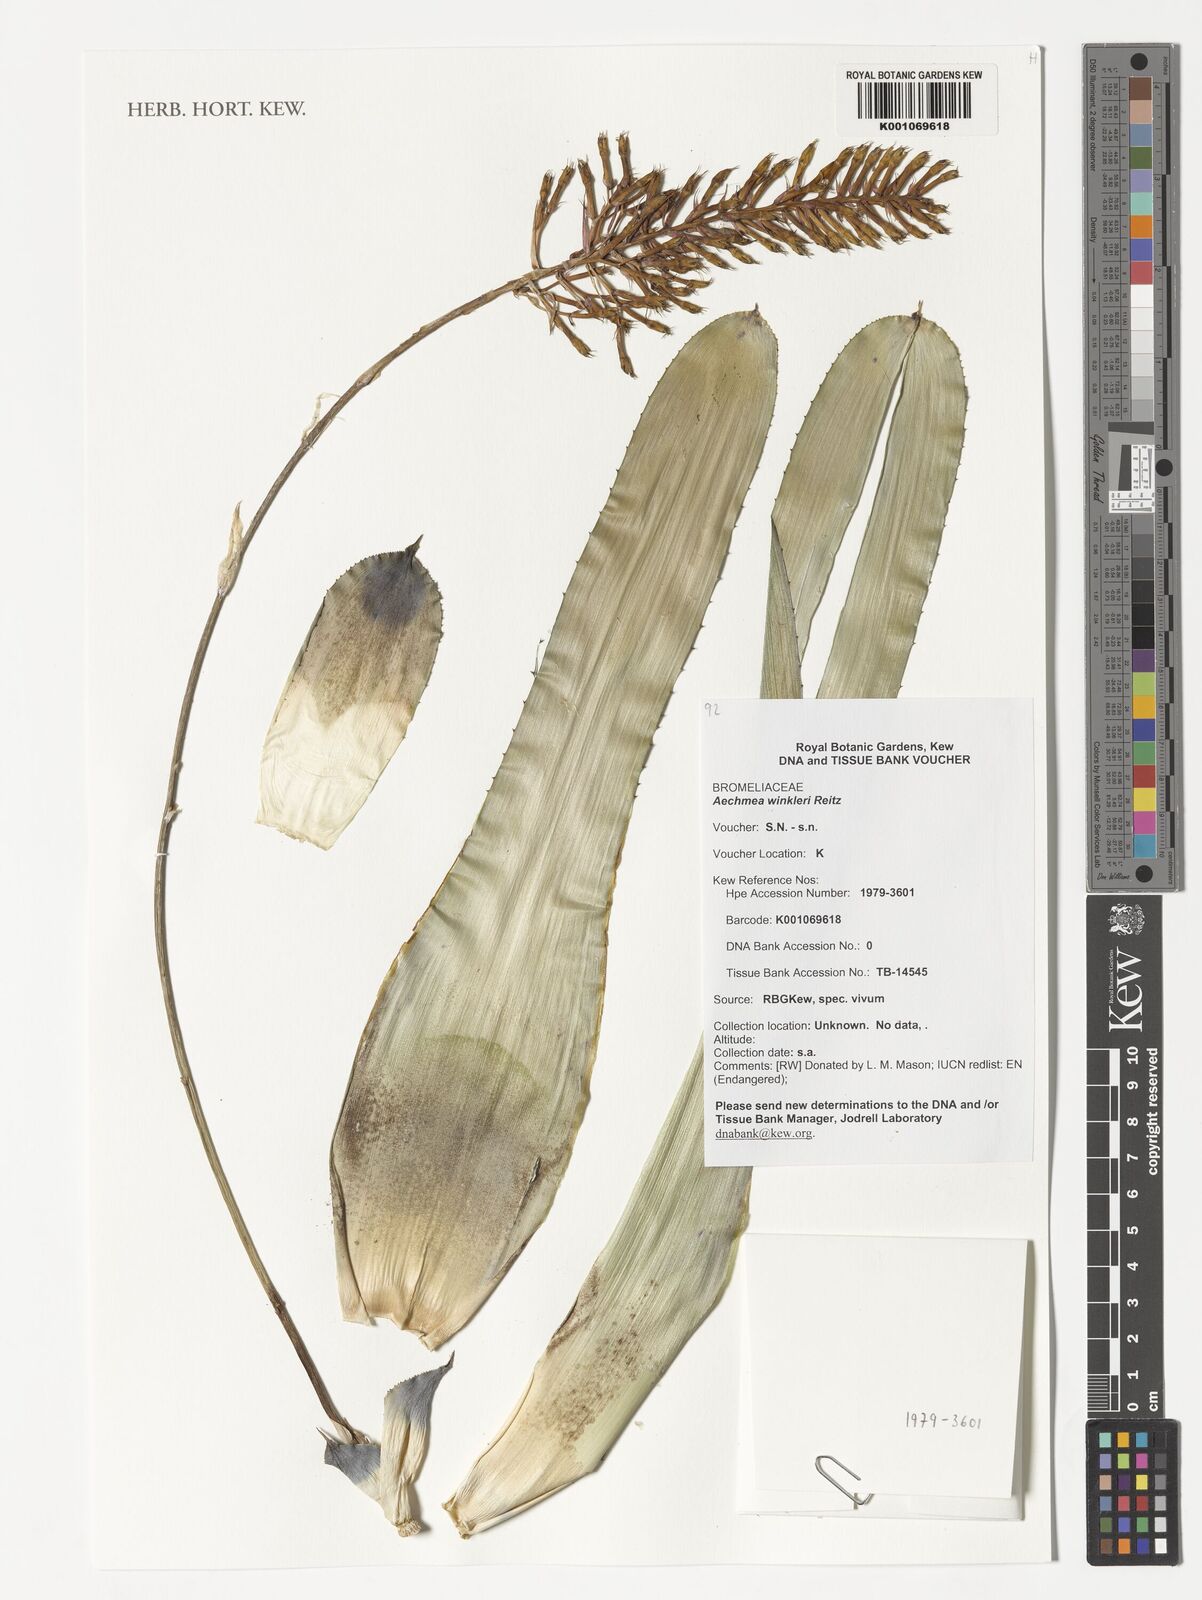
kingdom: Plantae
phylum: Tracheophyta
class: Liliopsida
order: Poales
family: Bromeliaceae
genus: Aechmea
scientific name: Aechmea winkleri
